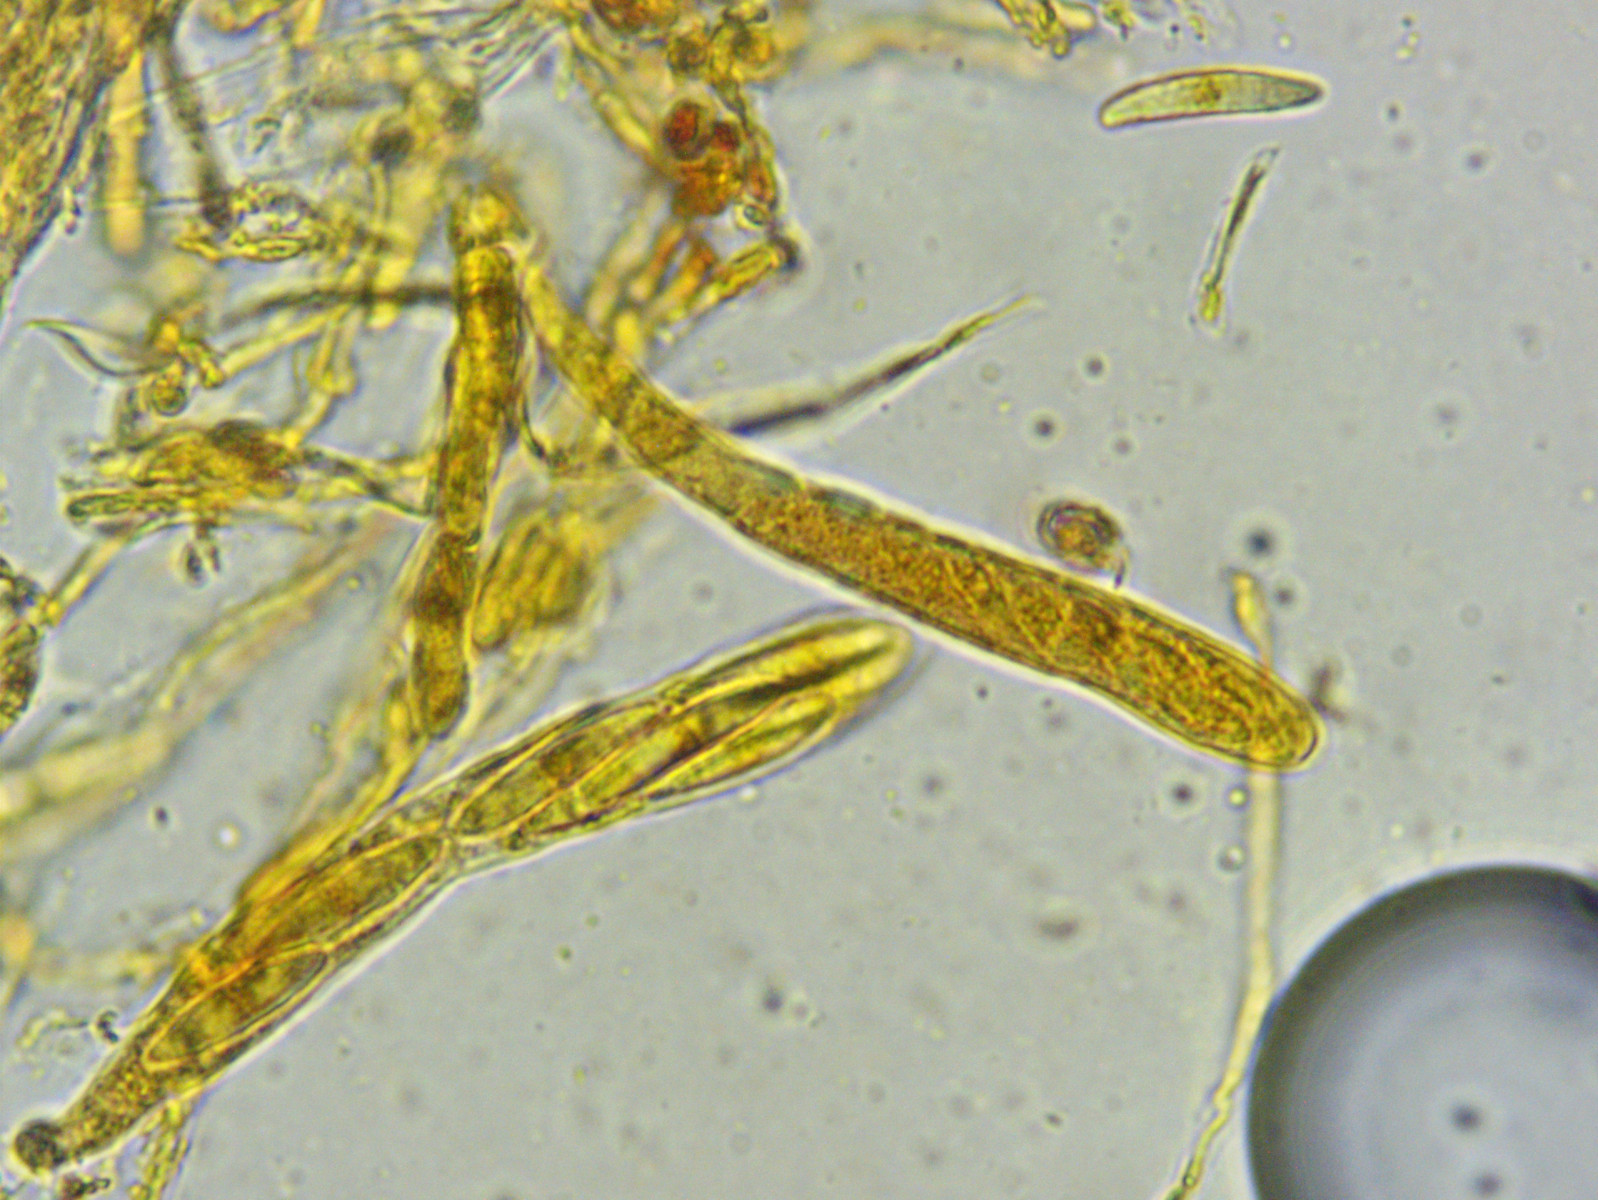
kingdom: Fungi
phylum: Ascomycota
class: Leotiomycetes
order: Helotiales
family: Pezizellaceae
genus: Pezizella
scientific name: Pezizella
